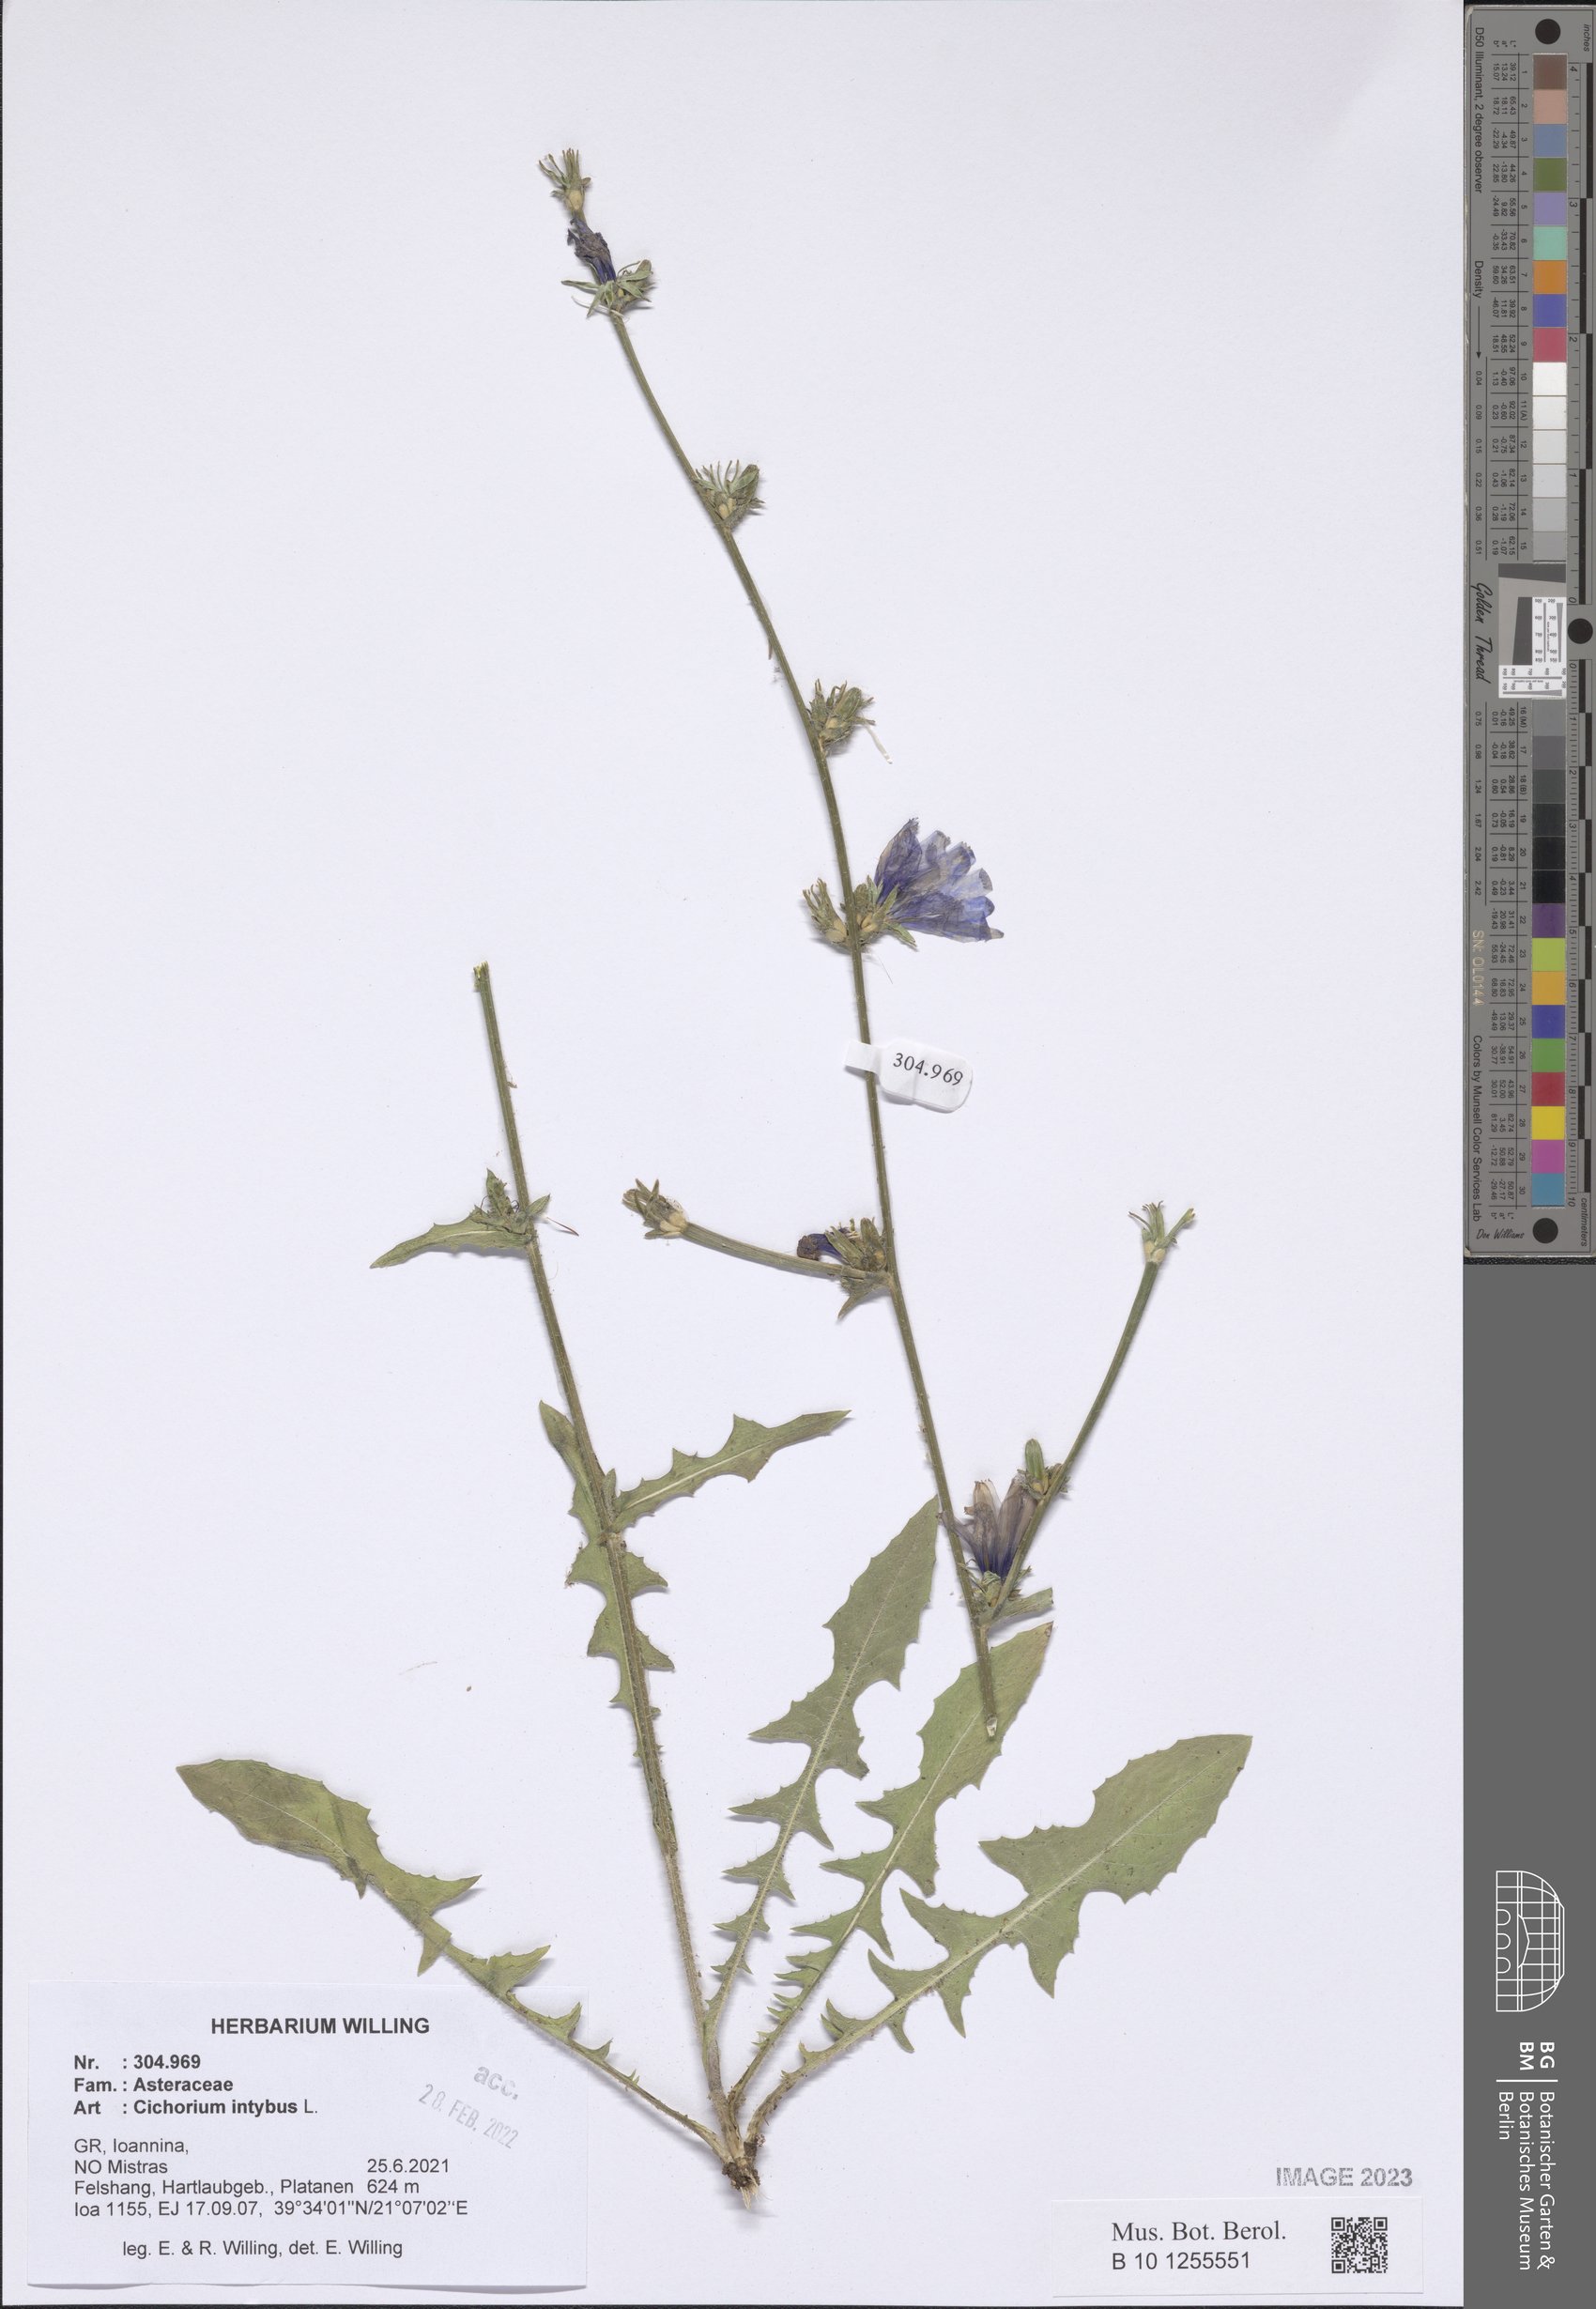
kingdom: Plantae
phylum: Tracheophyta
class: Magnoliopsida
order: Asterales
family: Asteraceae
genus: Cichorium
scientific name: Cichorium intybus
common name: Chicory
